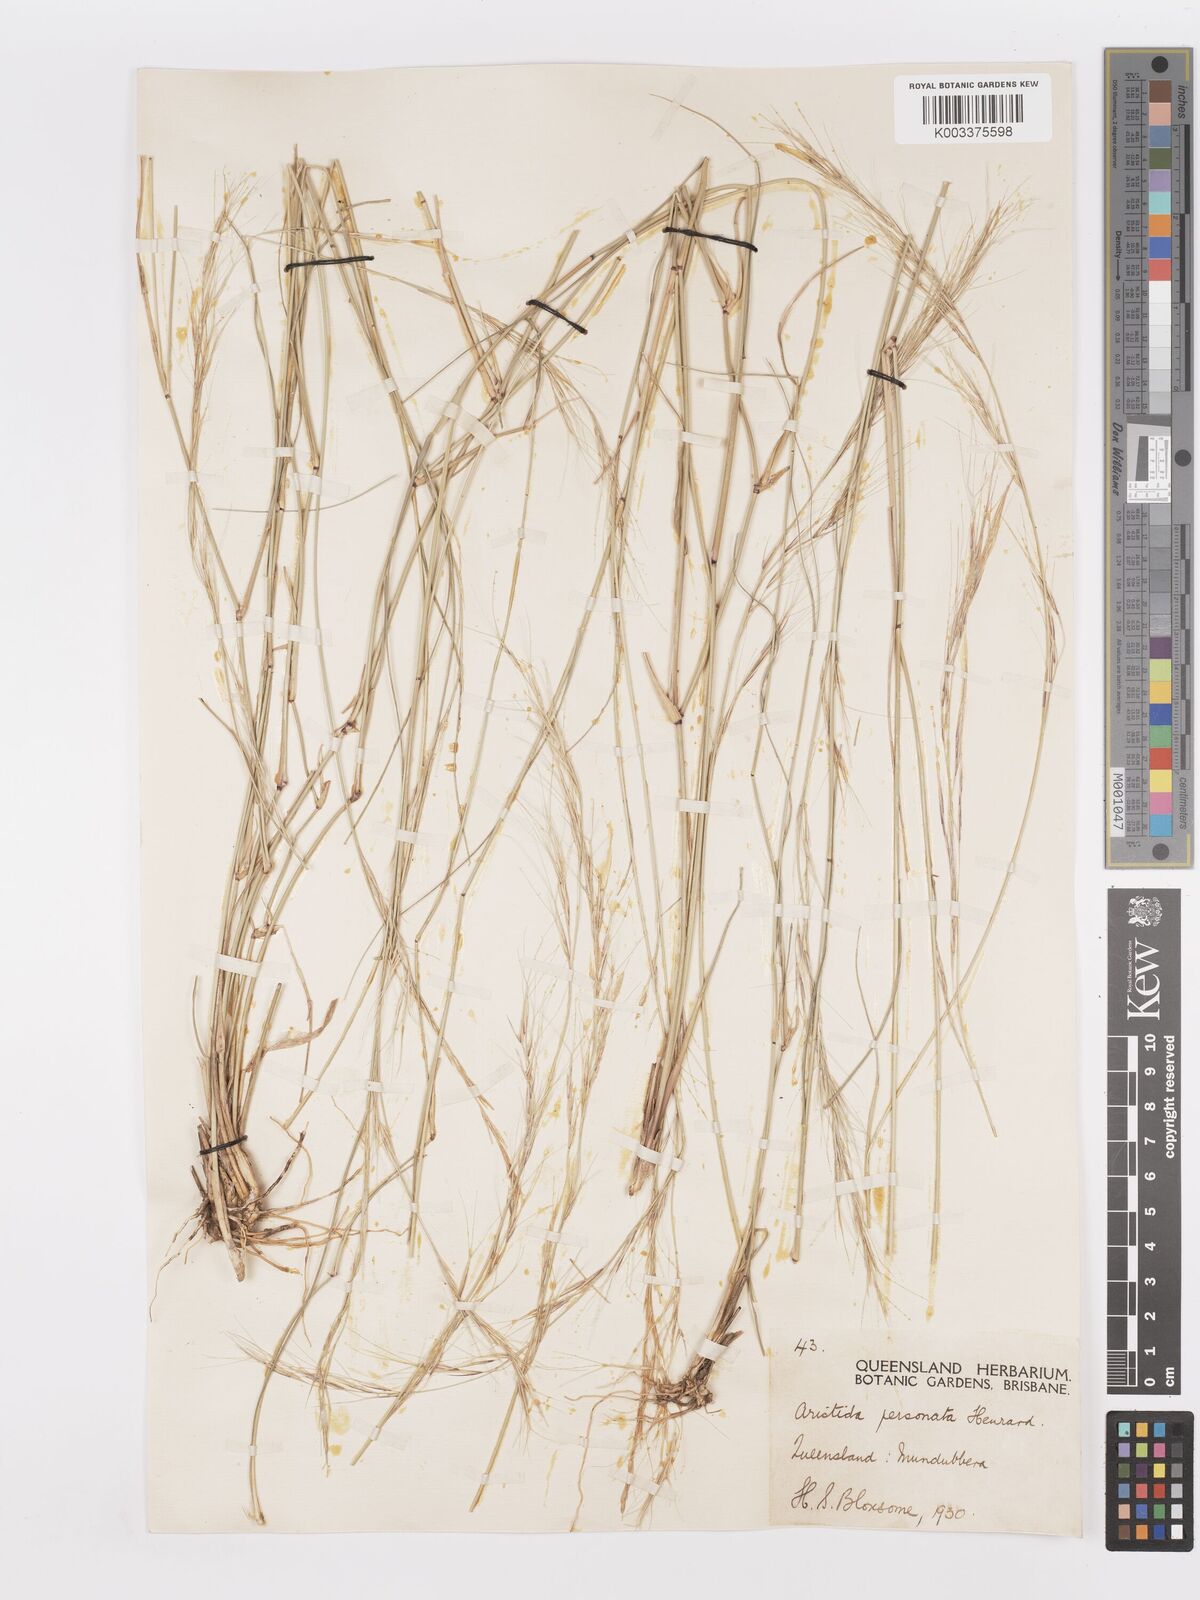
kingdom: Plantae
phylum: Tracheophyta
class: Liliopsida
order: Poales
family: Poaceae
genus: Aristida
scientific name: Aristida personata
